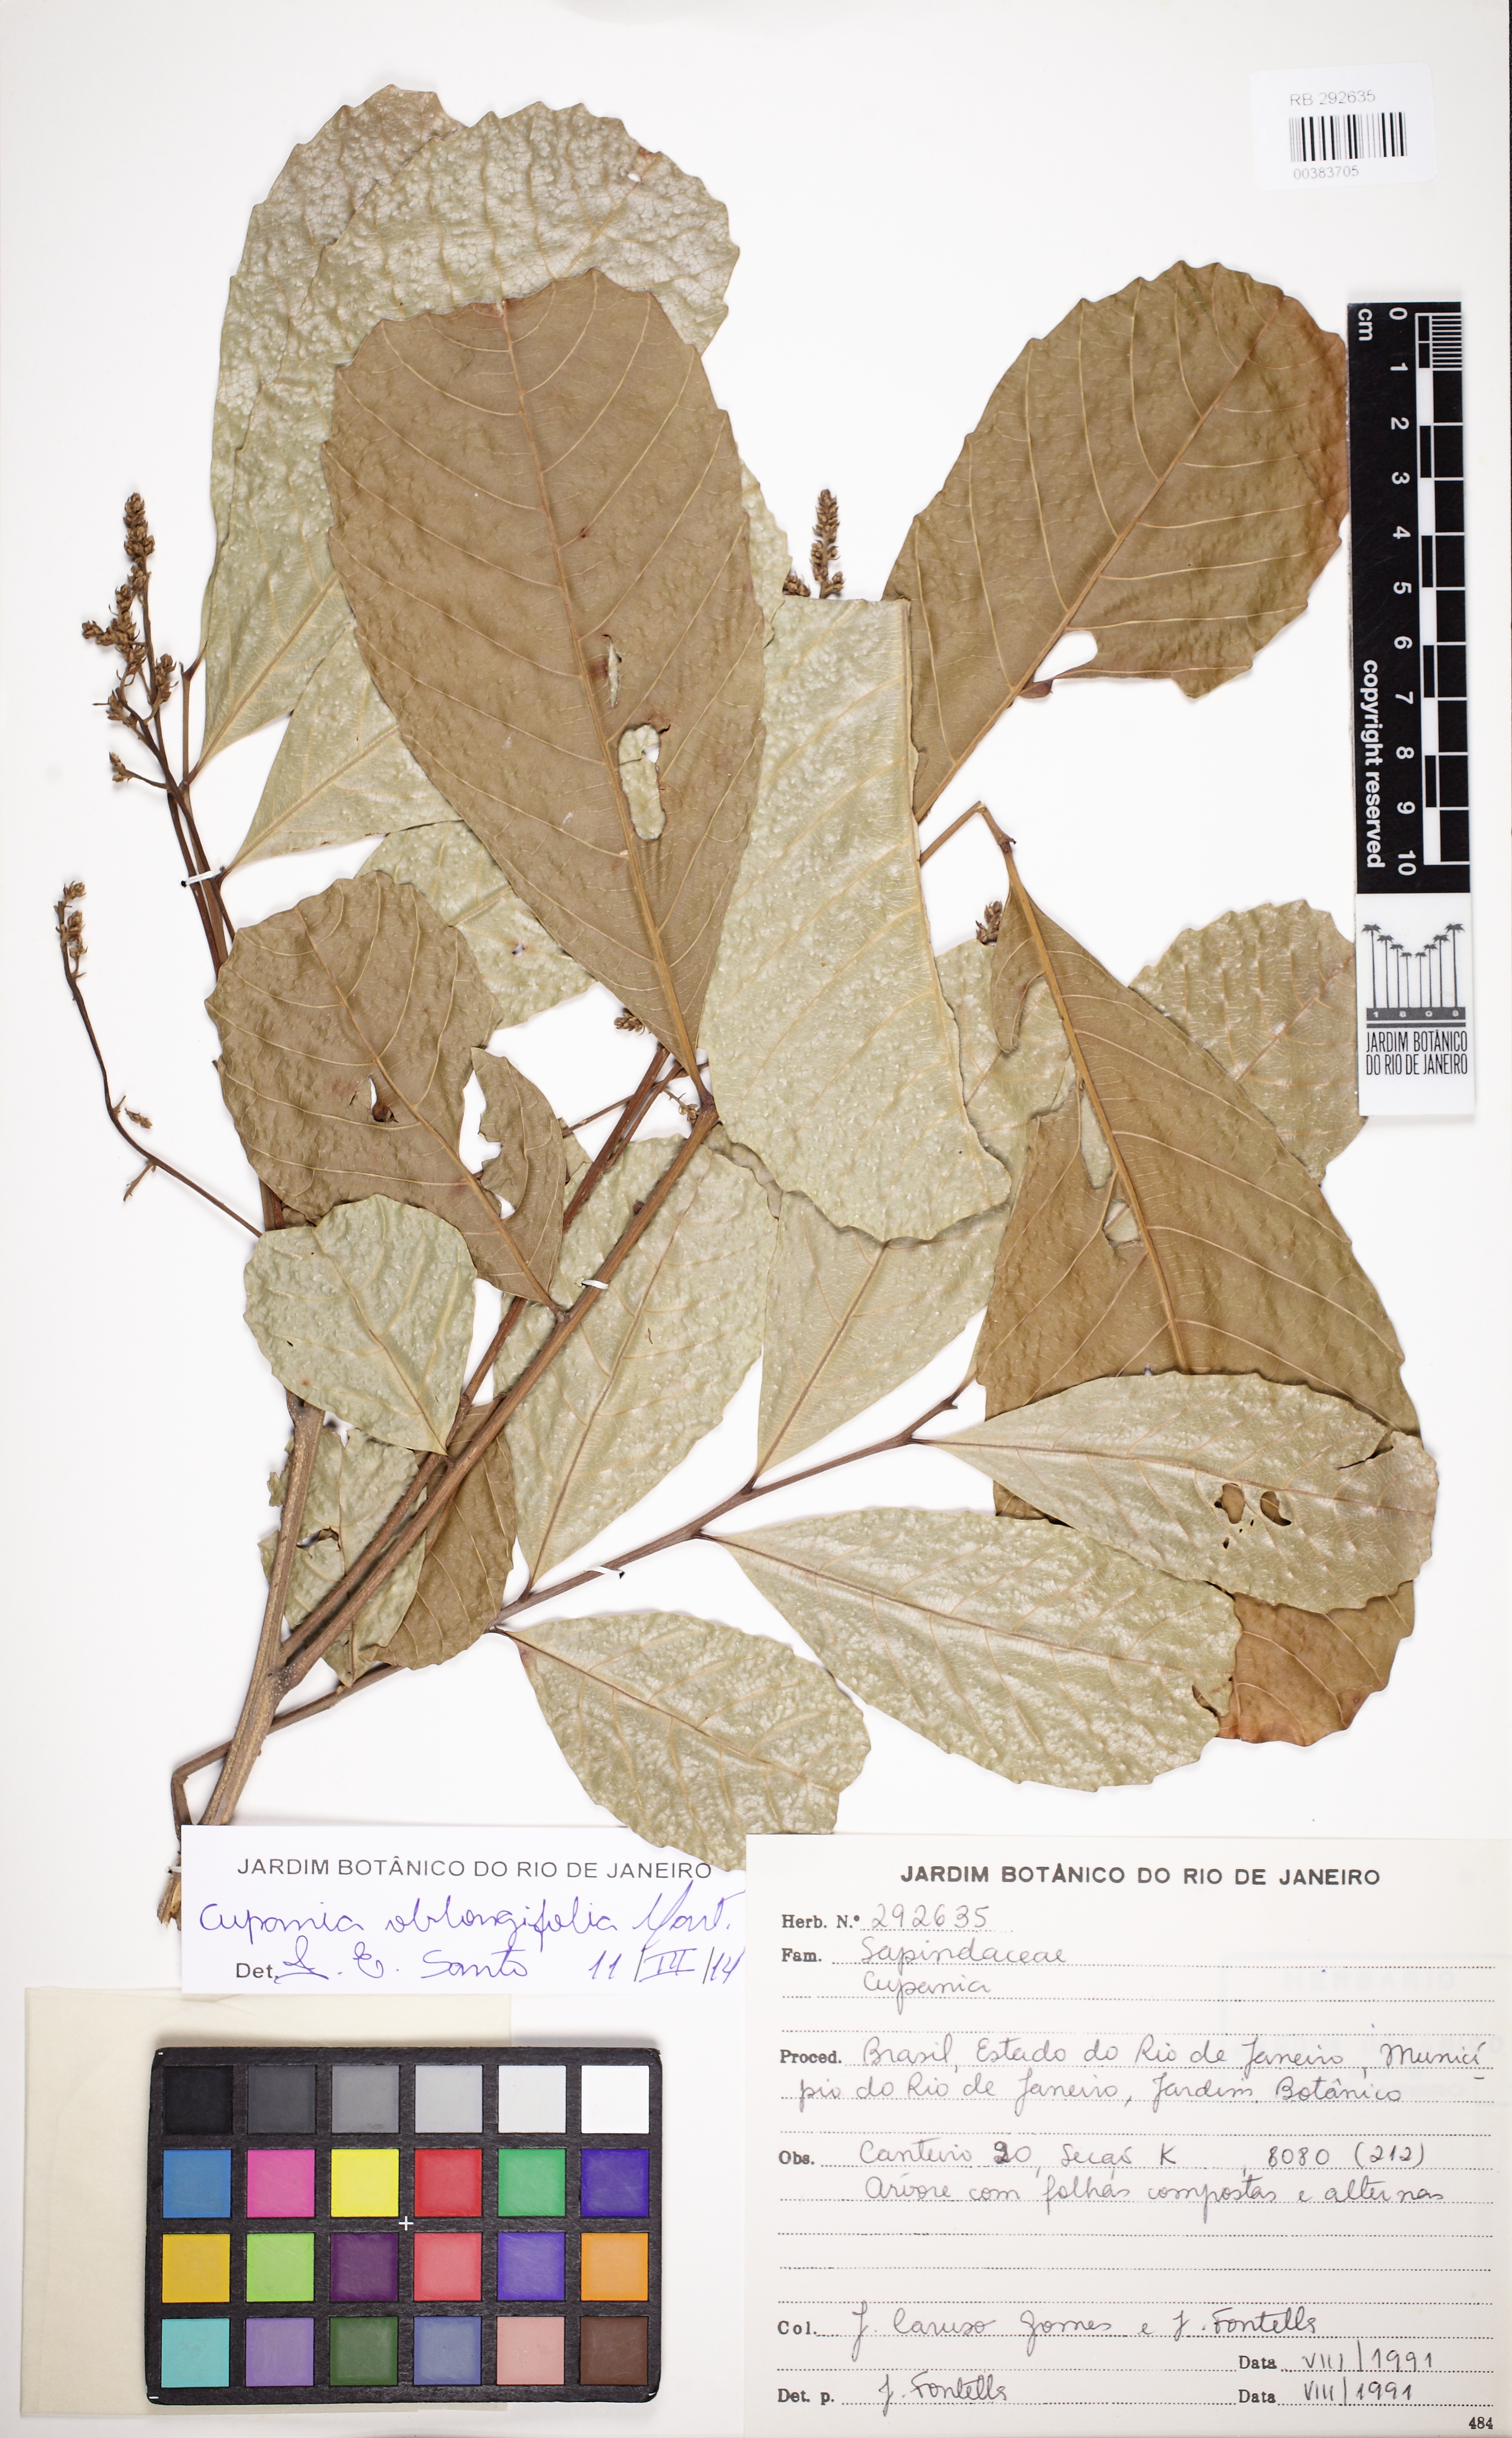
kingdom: Plantae
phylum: Tracheophyta
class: Magnoliopsida
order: Sapindales
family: Sapindaceae
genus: Cupania
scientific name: Cupania oblongifolia
